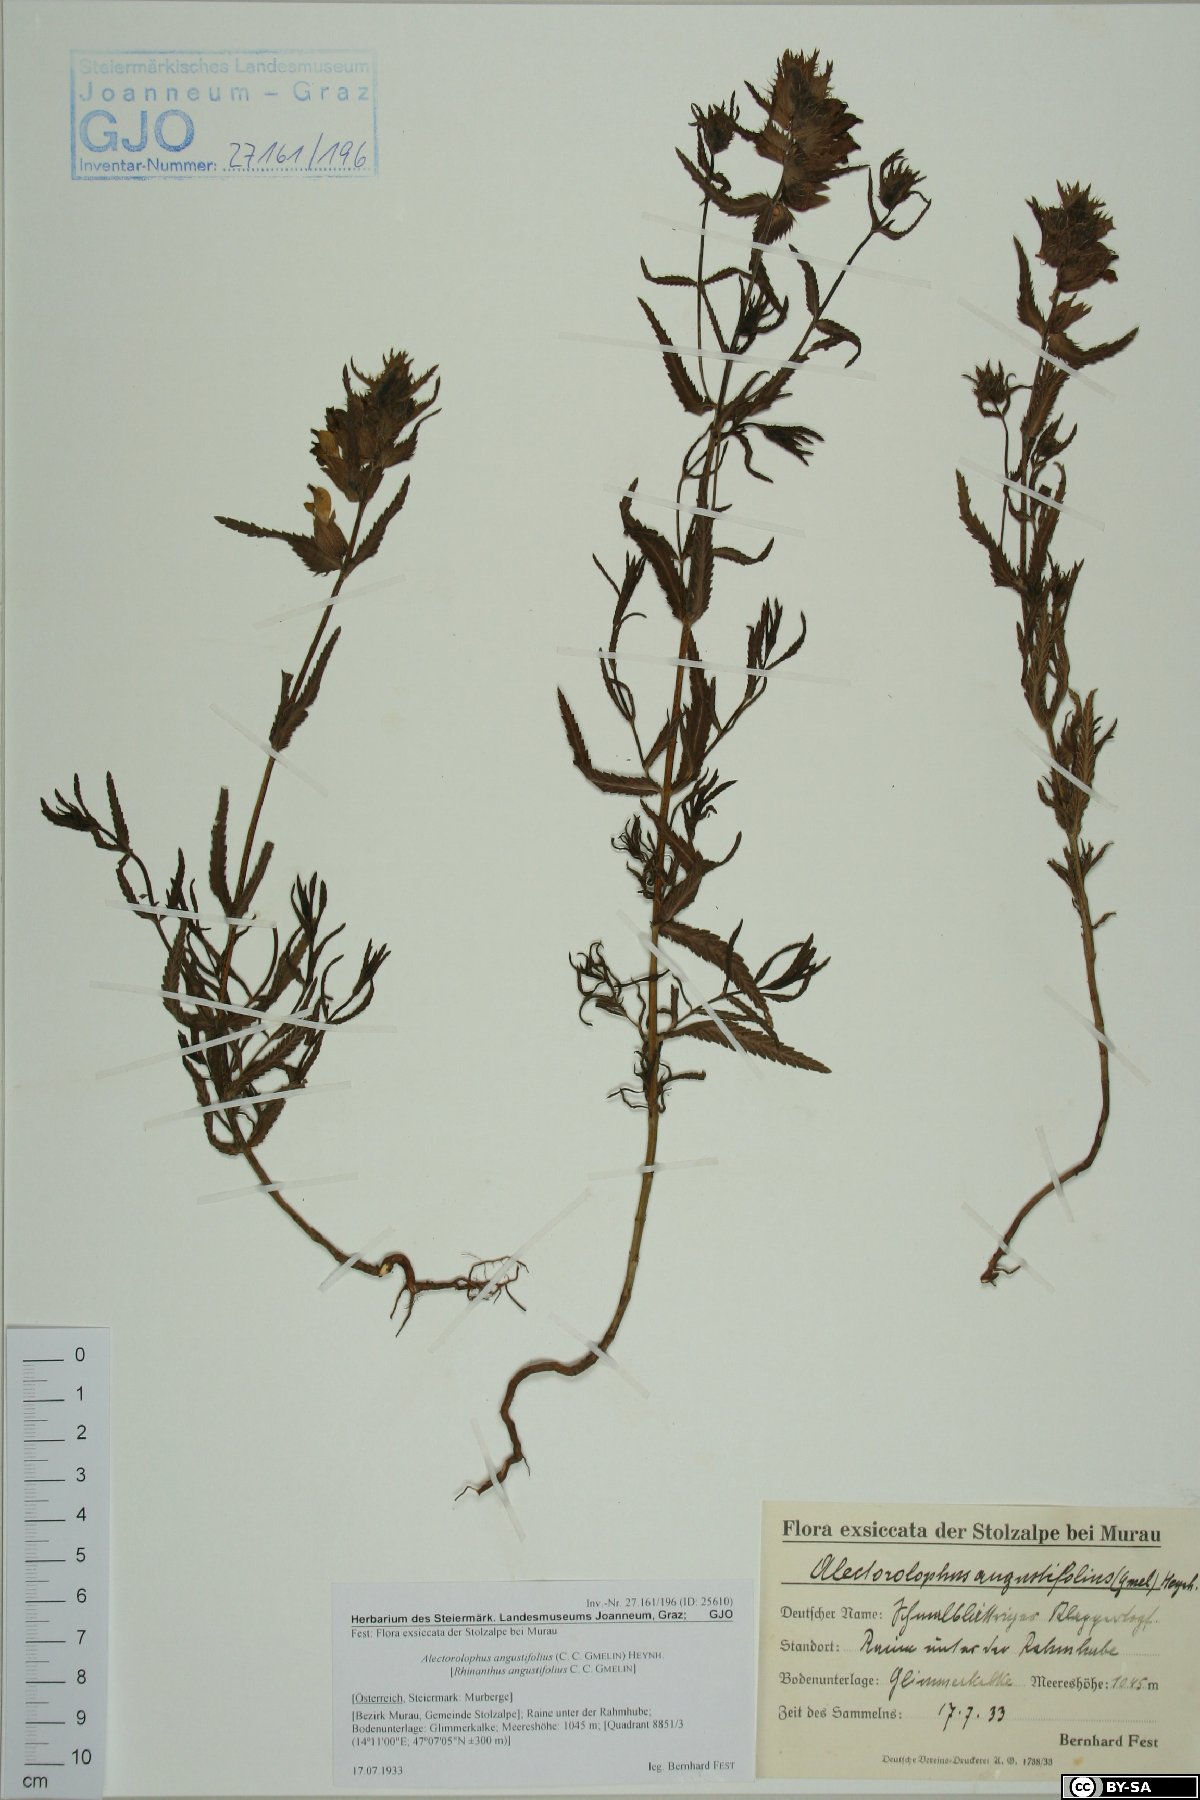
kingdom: Plantae
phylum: Tracheophyta
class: Magnoliopsida
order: Lamiales
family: Orobanchaceae
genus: Rhinanthus
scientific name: Rhinanthus glacialis
